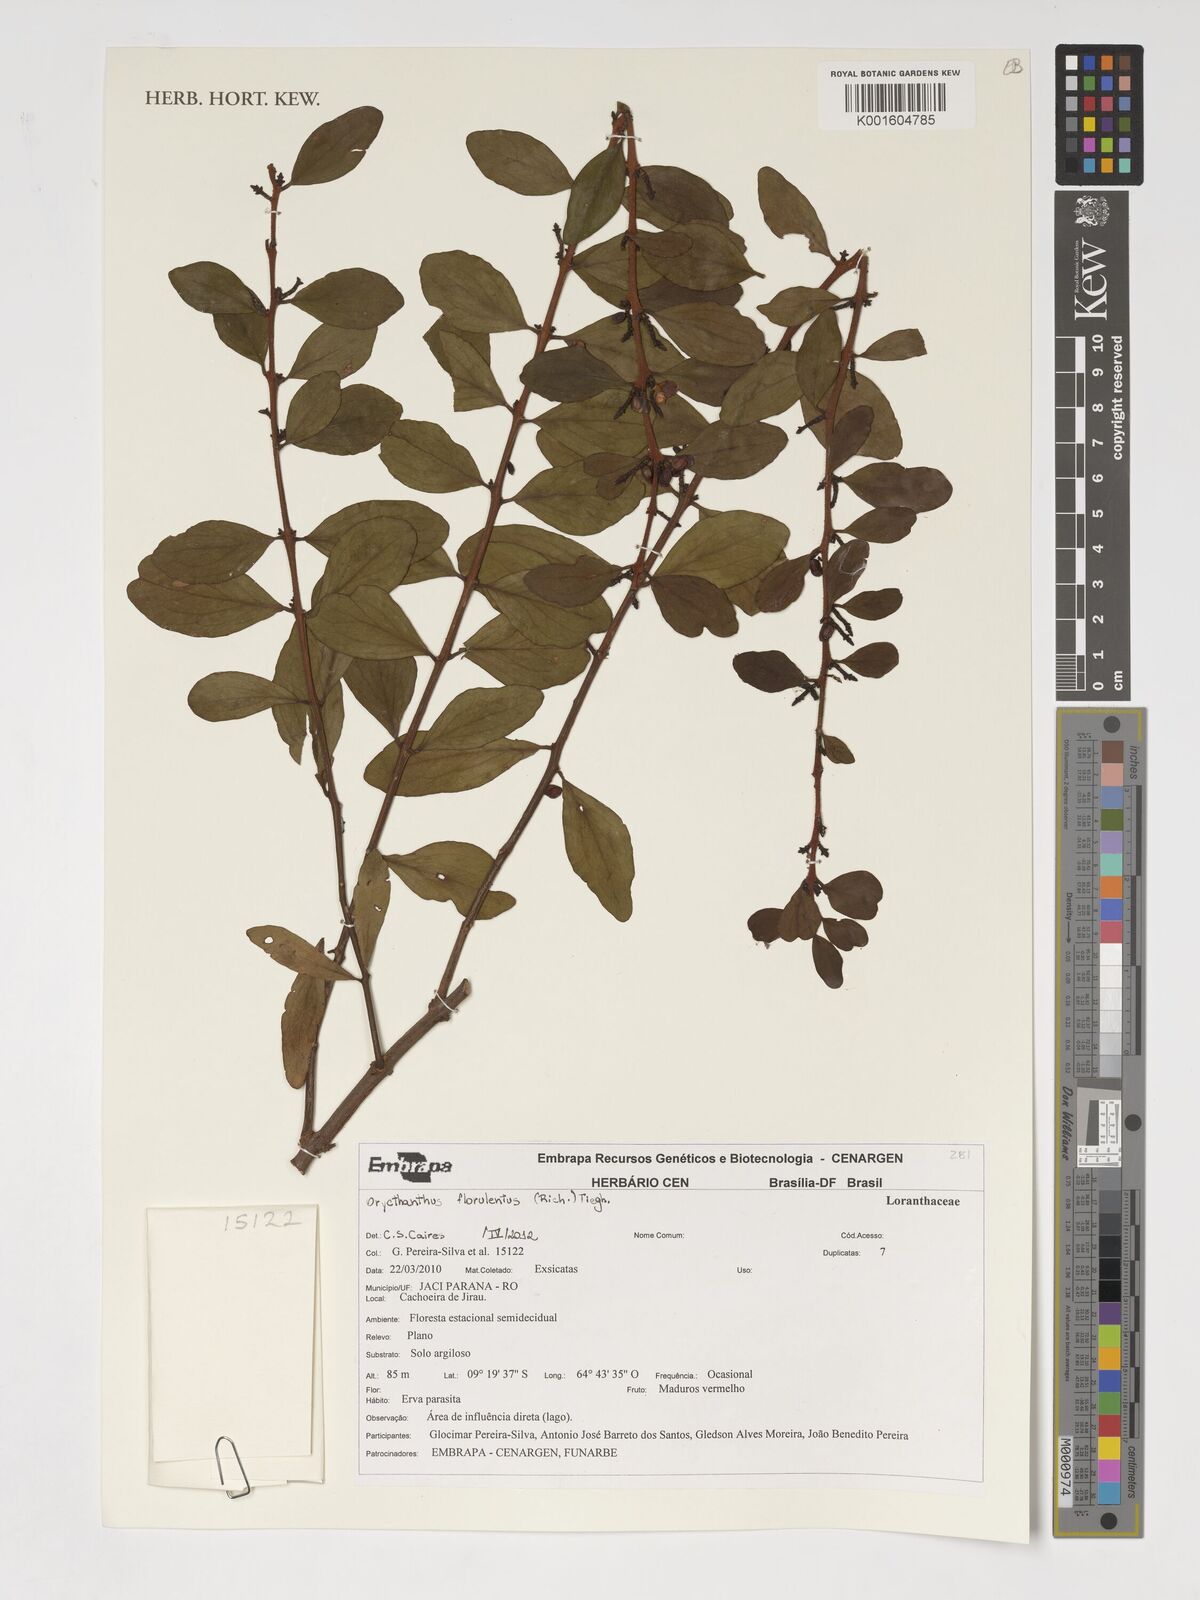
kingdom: Plantae
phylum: Tracheophyta
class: Magnoliopsida
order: Santalales
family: Loranthaceae
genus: Oryctanthus
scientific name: Oryctanthus florulentus
